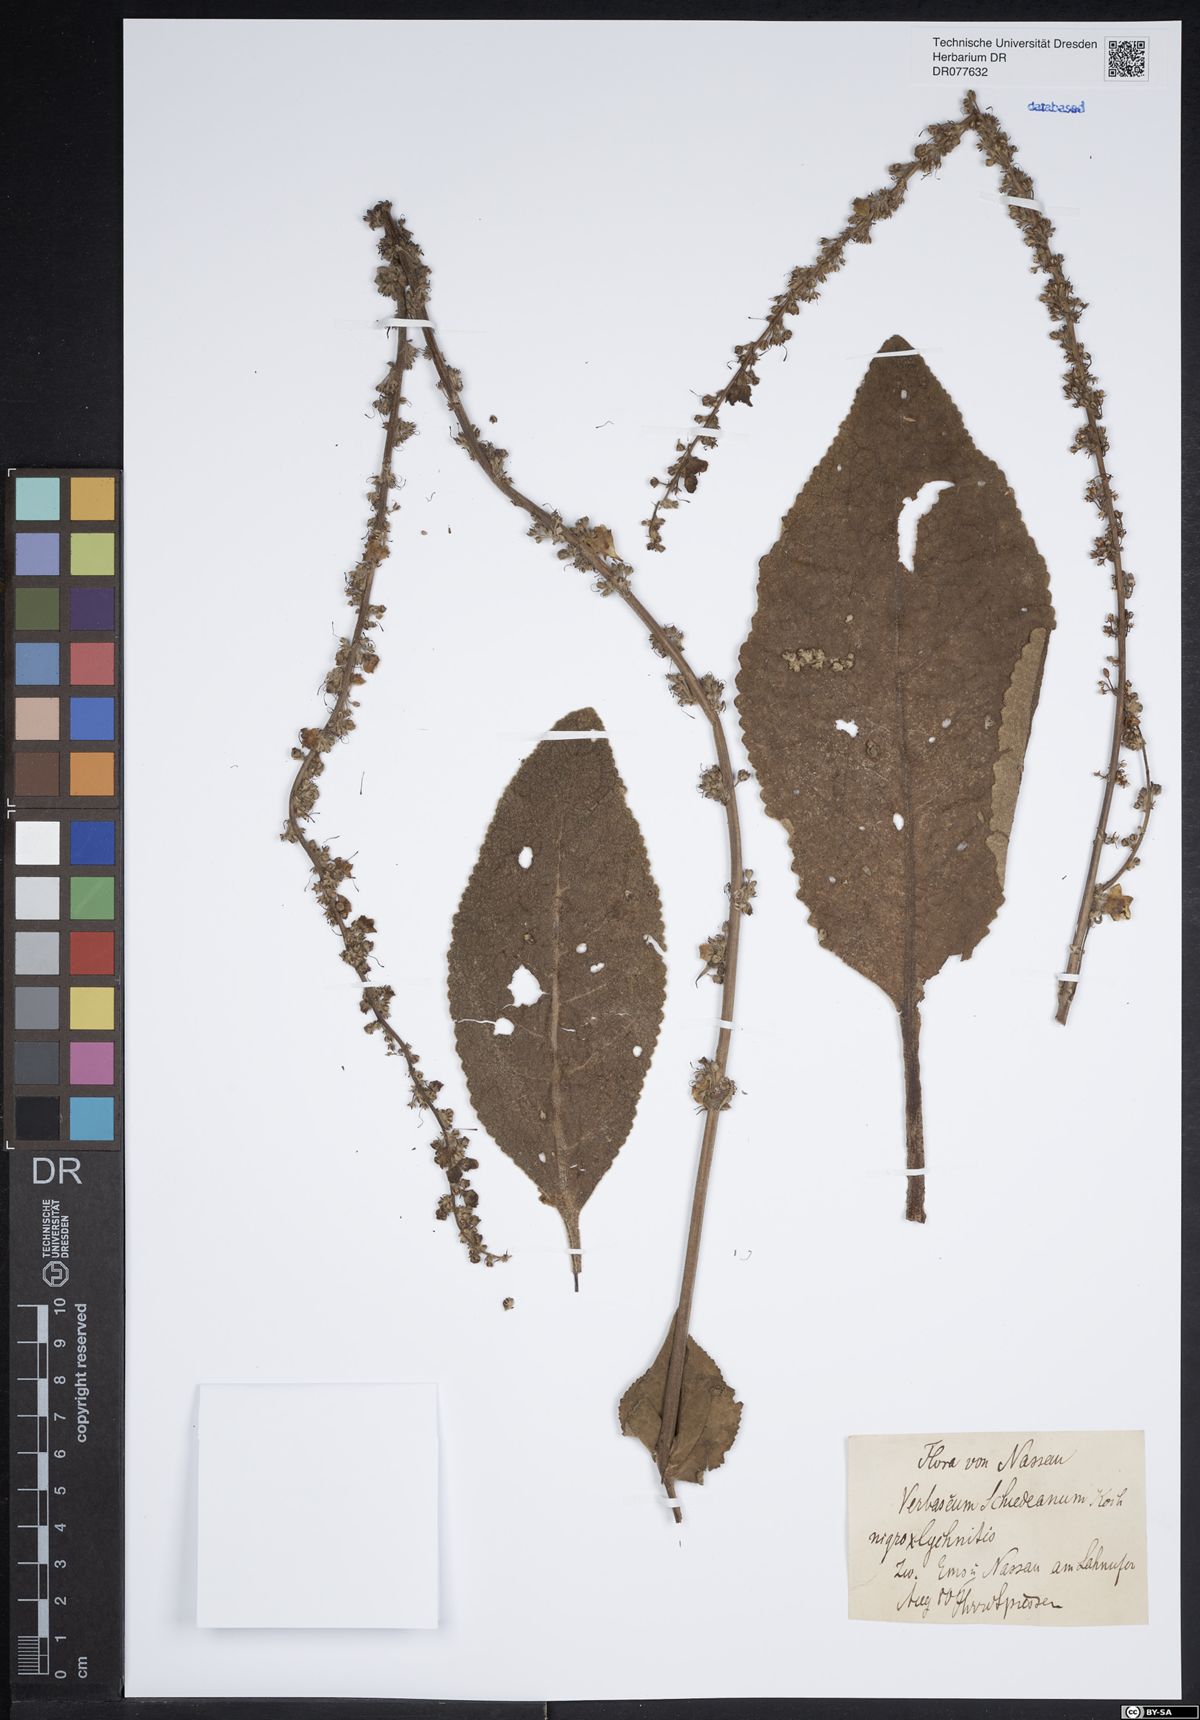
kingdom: Plantae
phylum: Tracheophyta
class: Magnoliopsida
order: Lamiales
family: Scrophulariaceae
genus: Verbascum
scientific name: Verbascum biebersteinii
